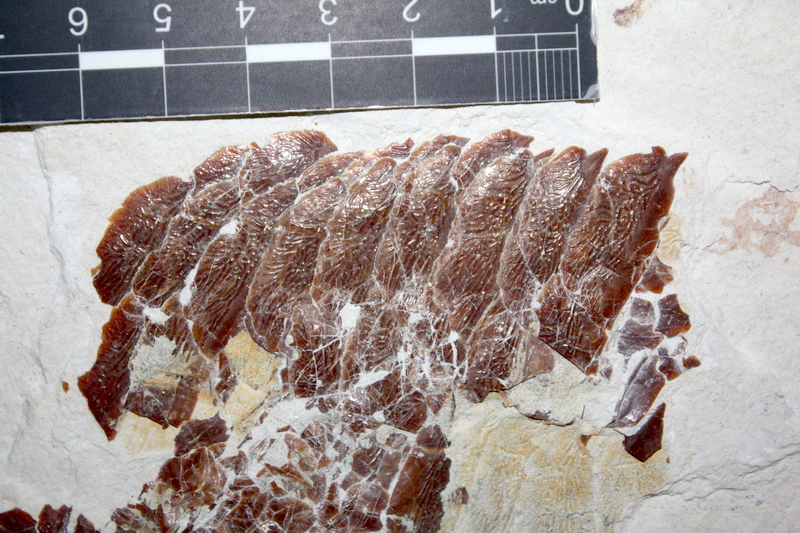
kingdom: Animalia
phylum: Chordata
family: Aspidorhynchidae
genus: Aspidorhynchus
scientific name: Aspidorhynchus ornatissimus
